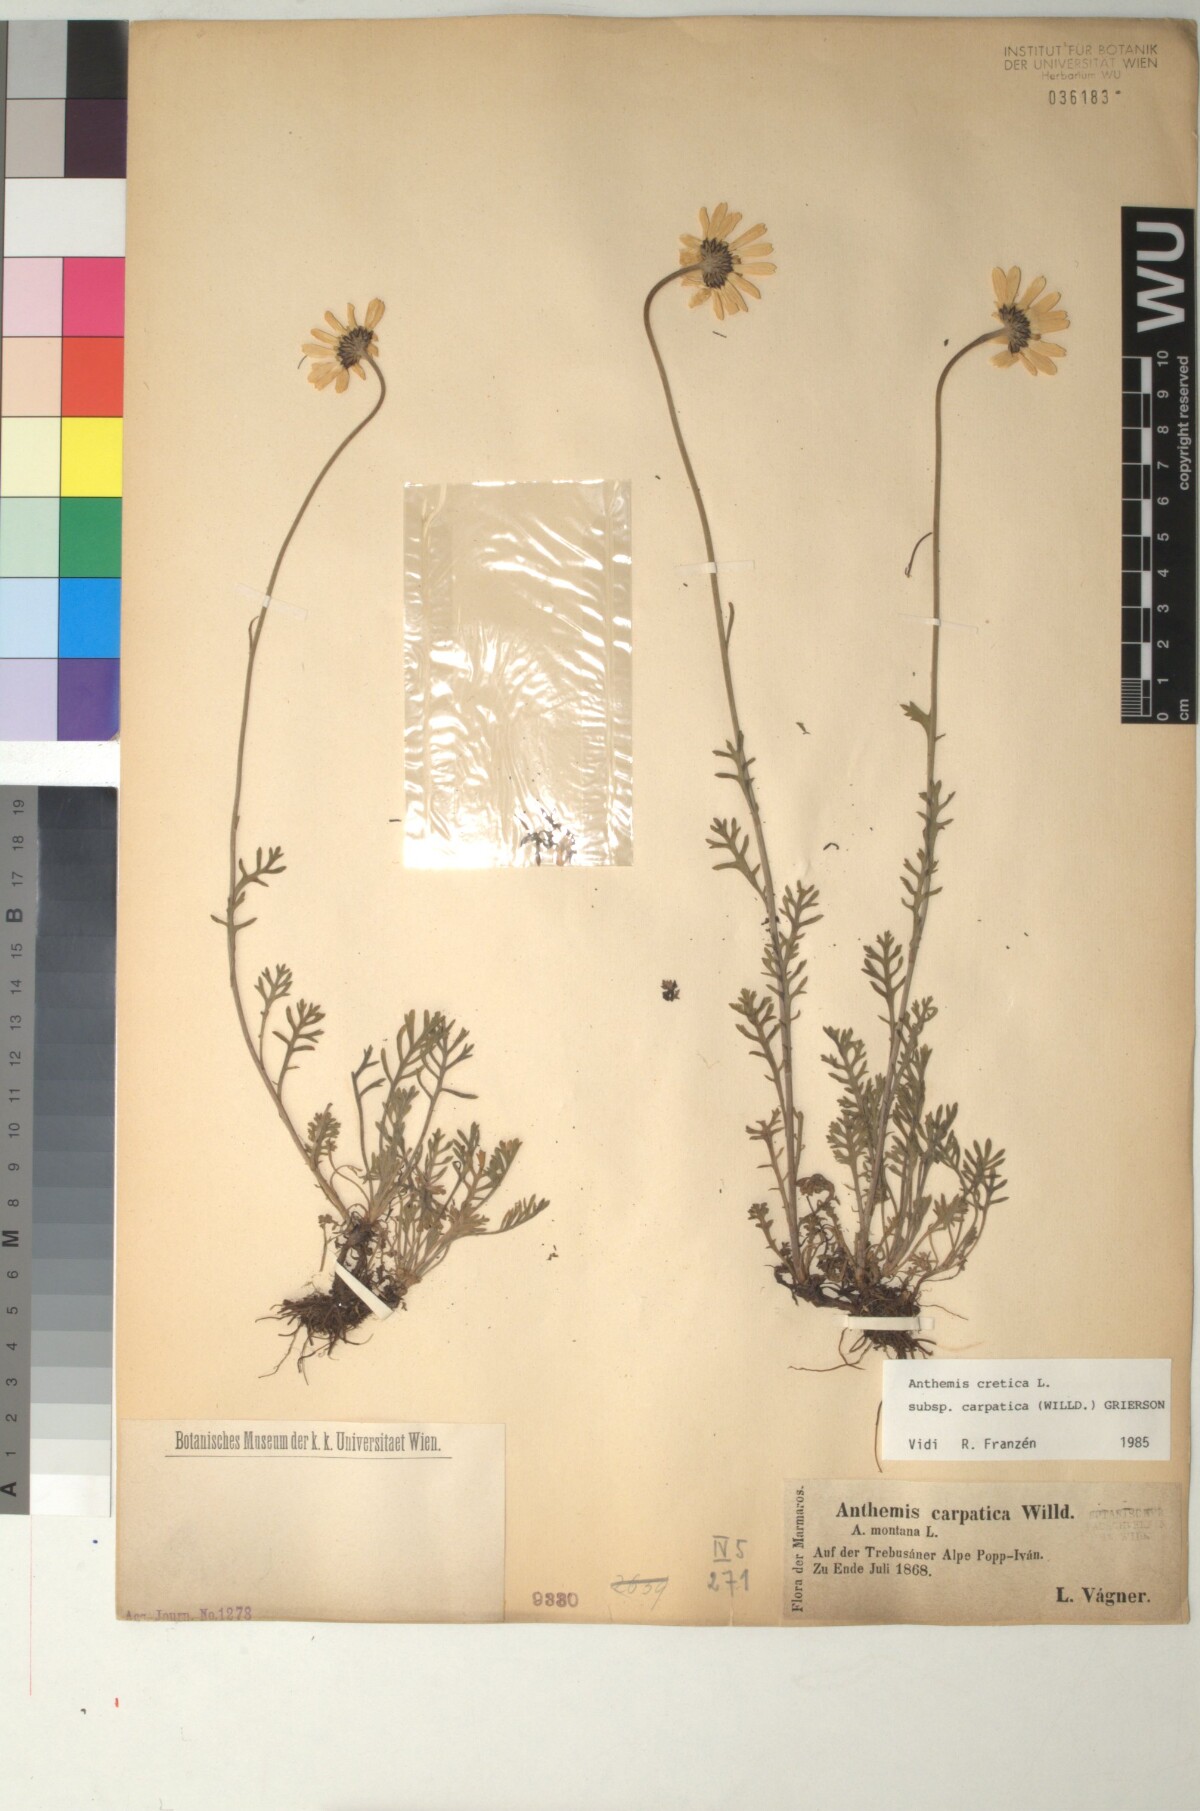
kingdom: Plantae
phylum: Tracheophyta
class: Magnoliopsida
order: Asterales
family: Asteraceae
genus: Anthemis
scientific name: Anthemis cretica
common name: Mountain dog-daisy
